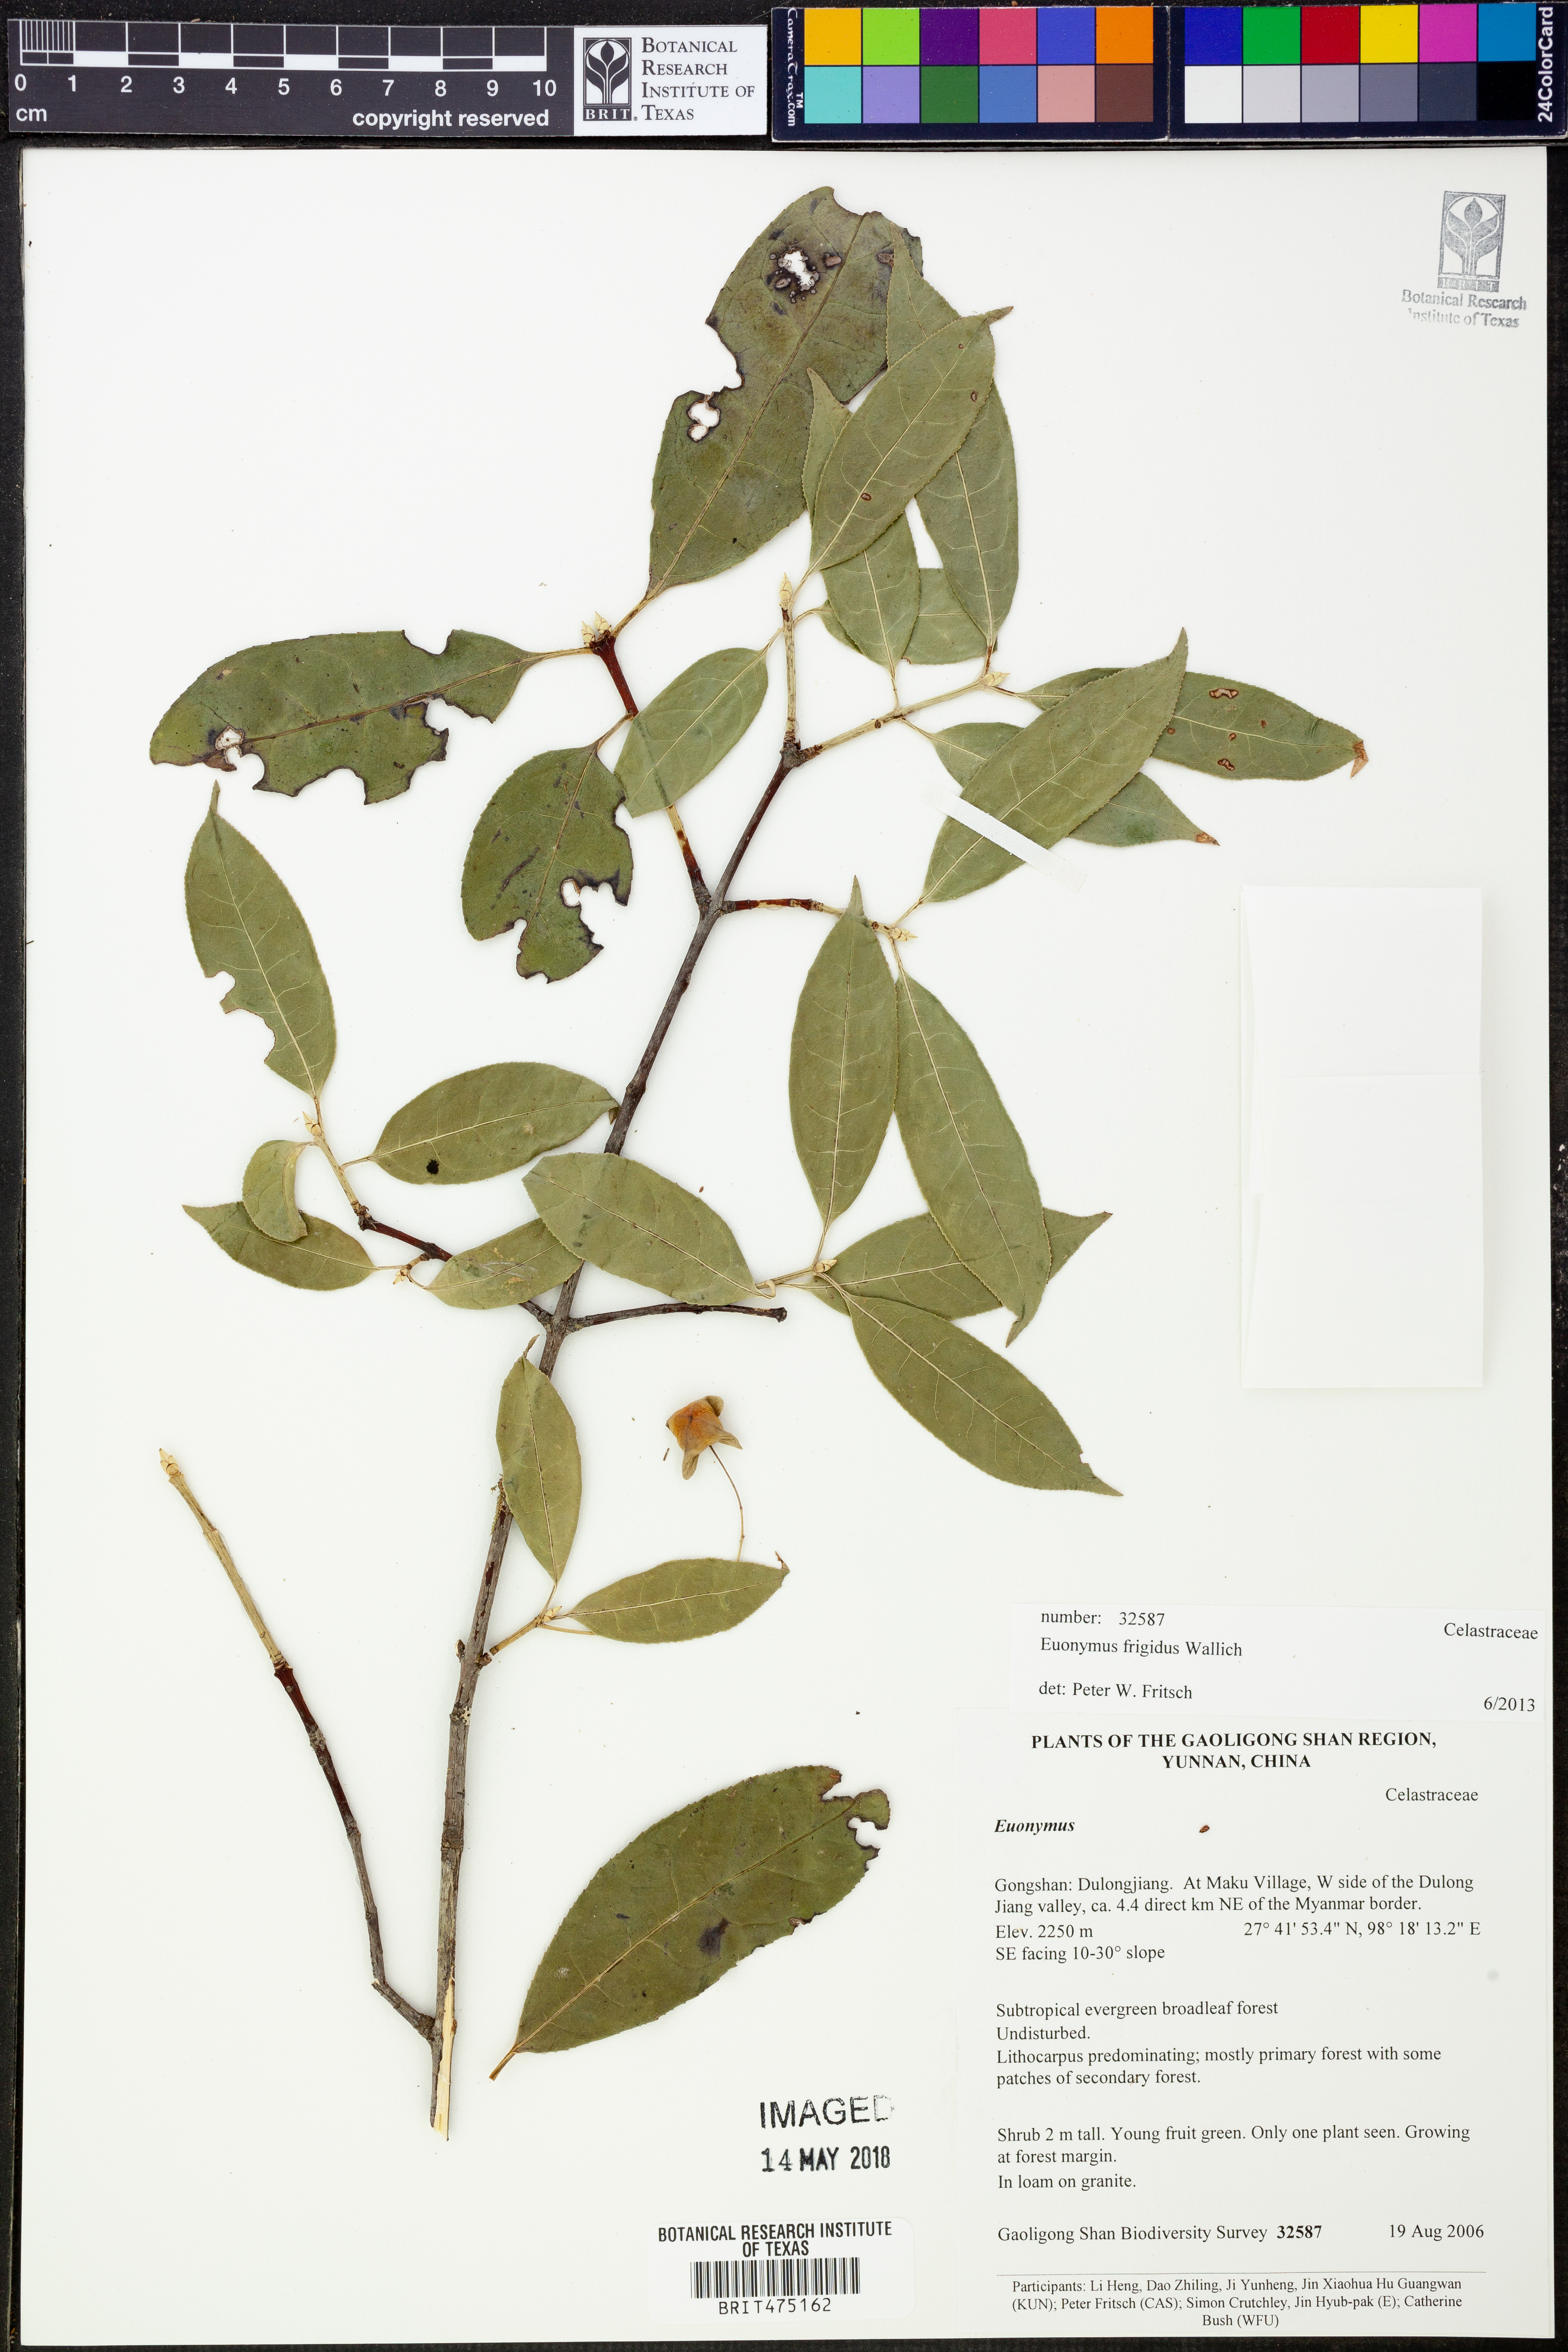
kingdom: Plantae
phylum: Tracheophyta
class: Magnoliopsida
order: Celastrales
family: Celastraceae
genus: Euonymus
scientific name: Euonymus frigidus
